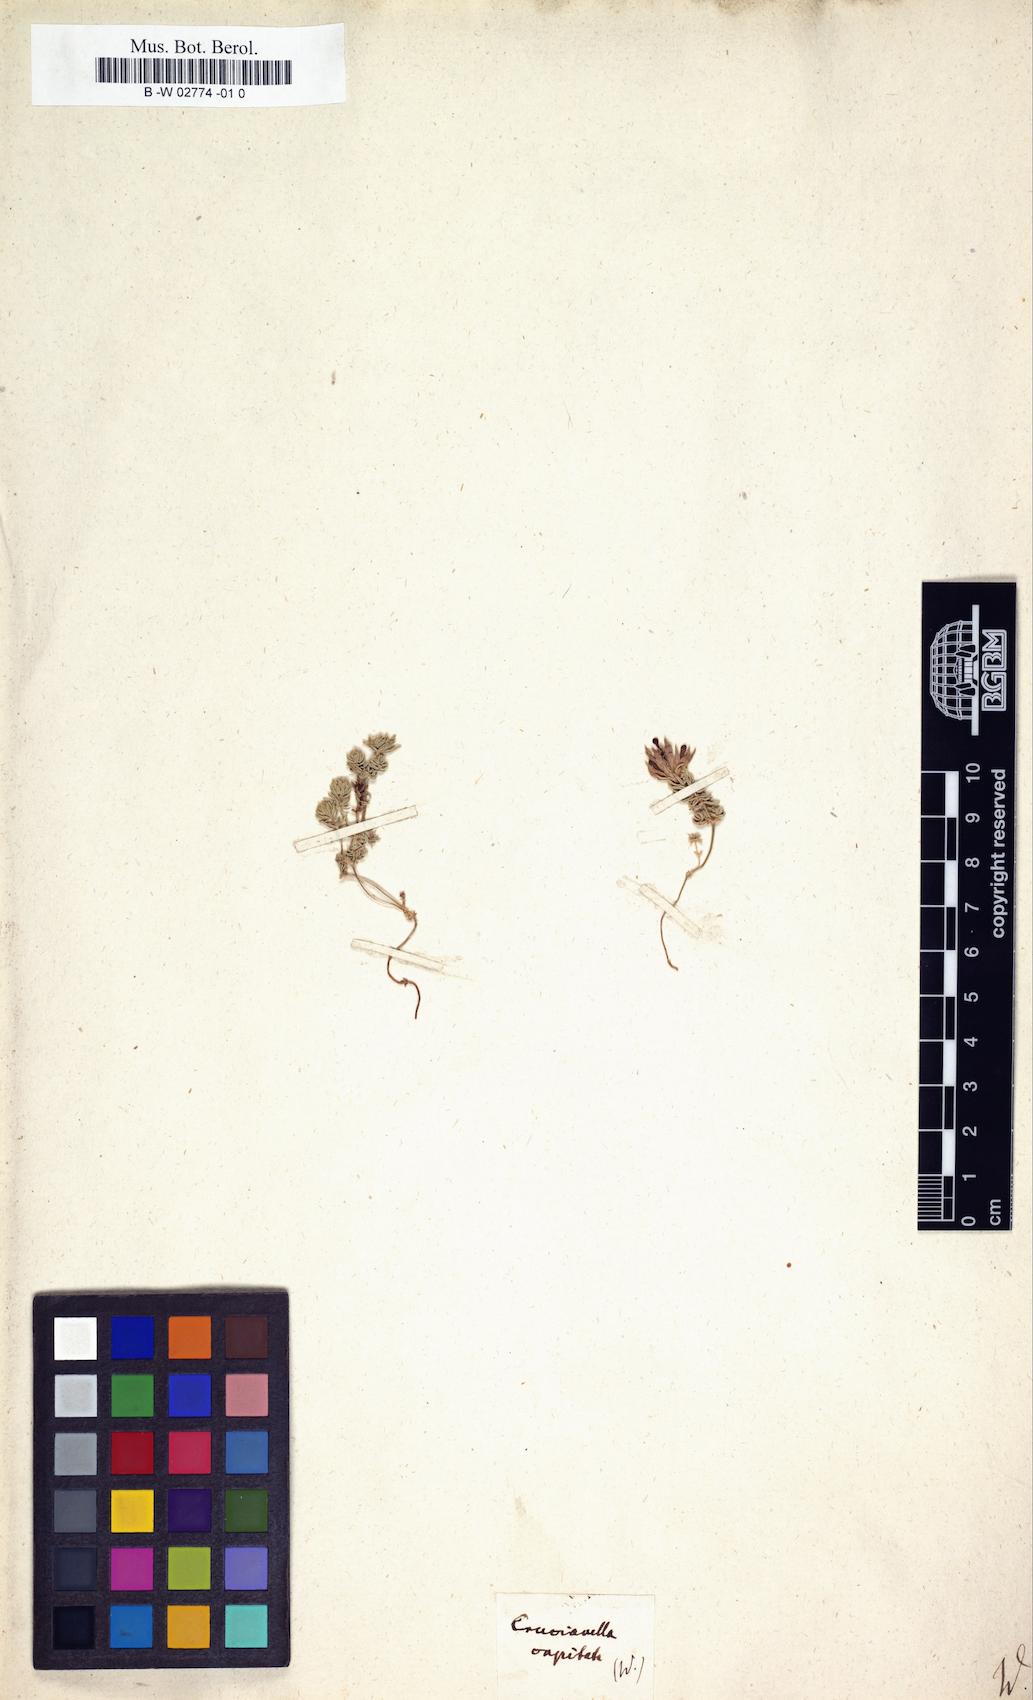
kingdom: Plantae
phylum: Tracheophyta
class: Magnoliopsida
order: Gentianales
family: Rubiaceae
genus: Asperula
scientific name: Asperula glomerata
